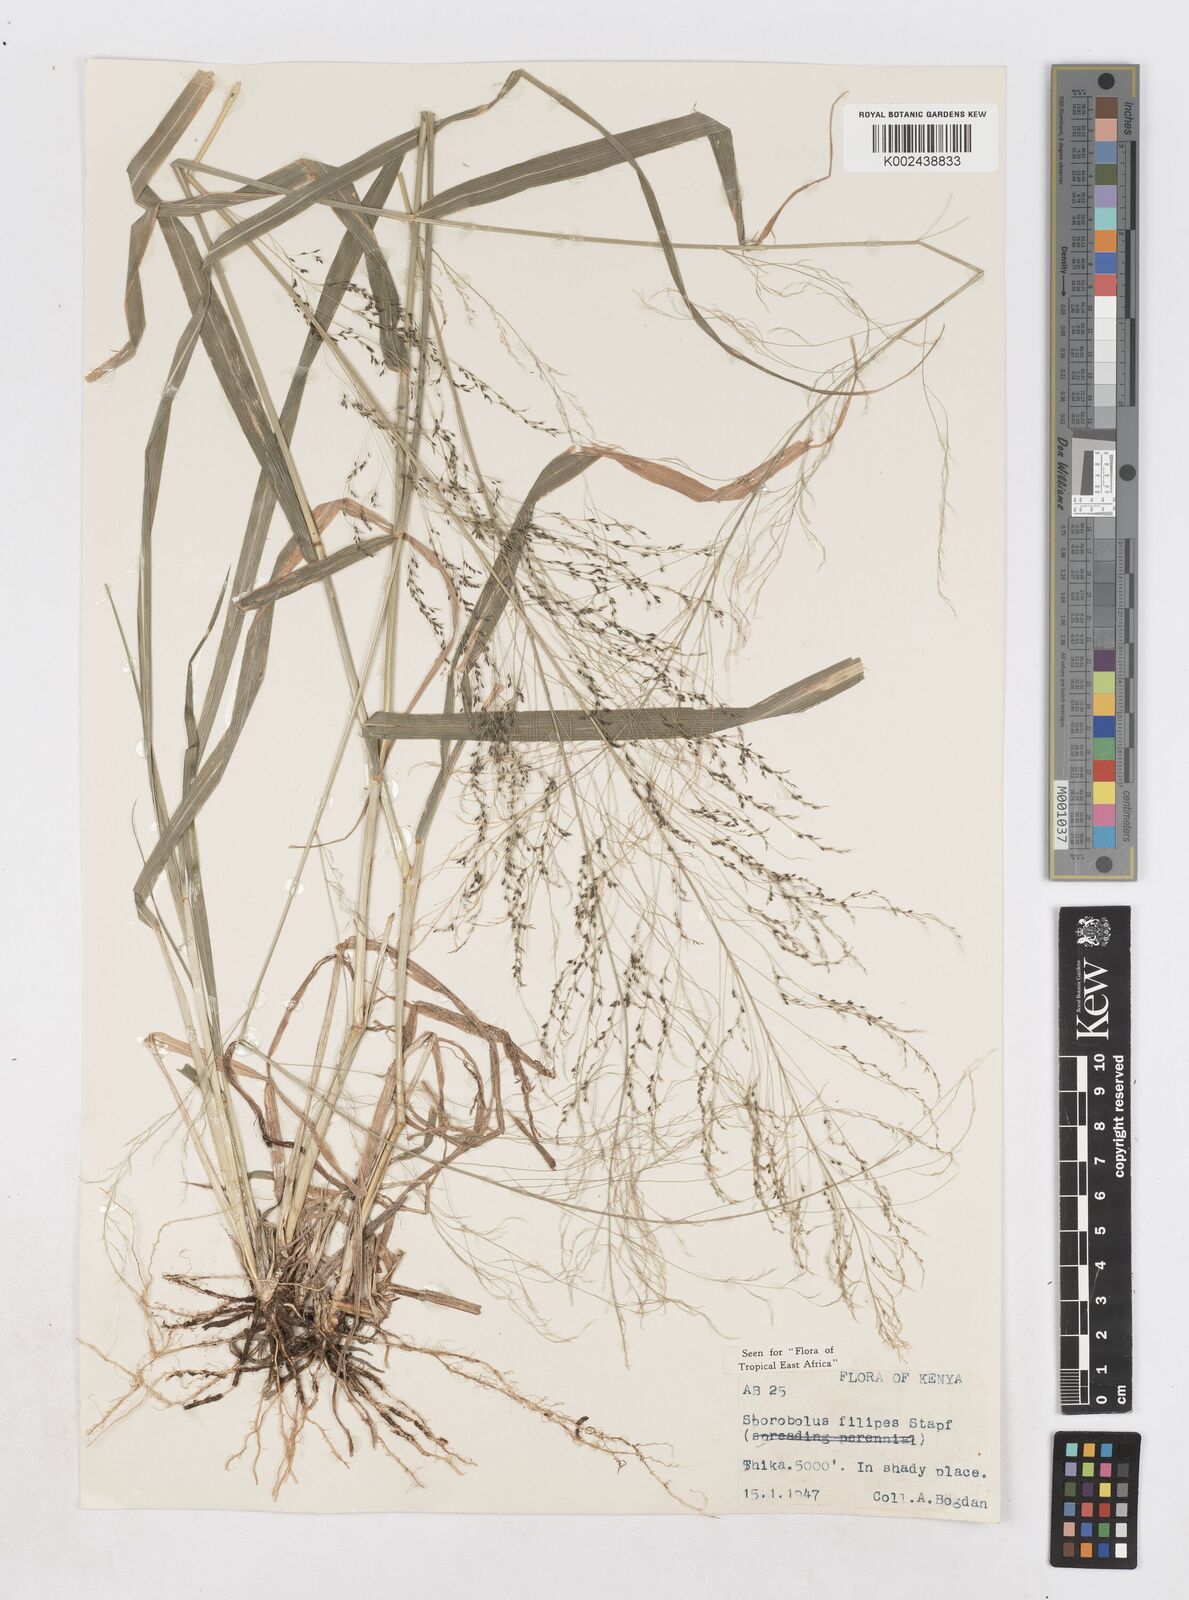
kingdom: Plantae
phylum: Tracheophyta
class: Liliopsida
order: Poales
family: Poaceae
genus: Sporobolus
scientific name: Sporobolus agrostoides
